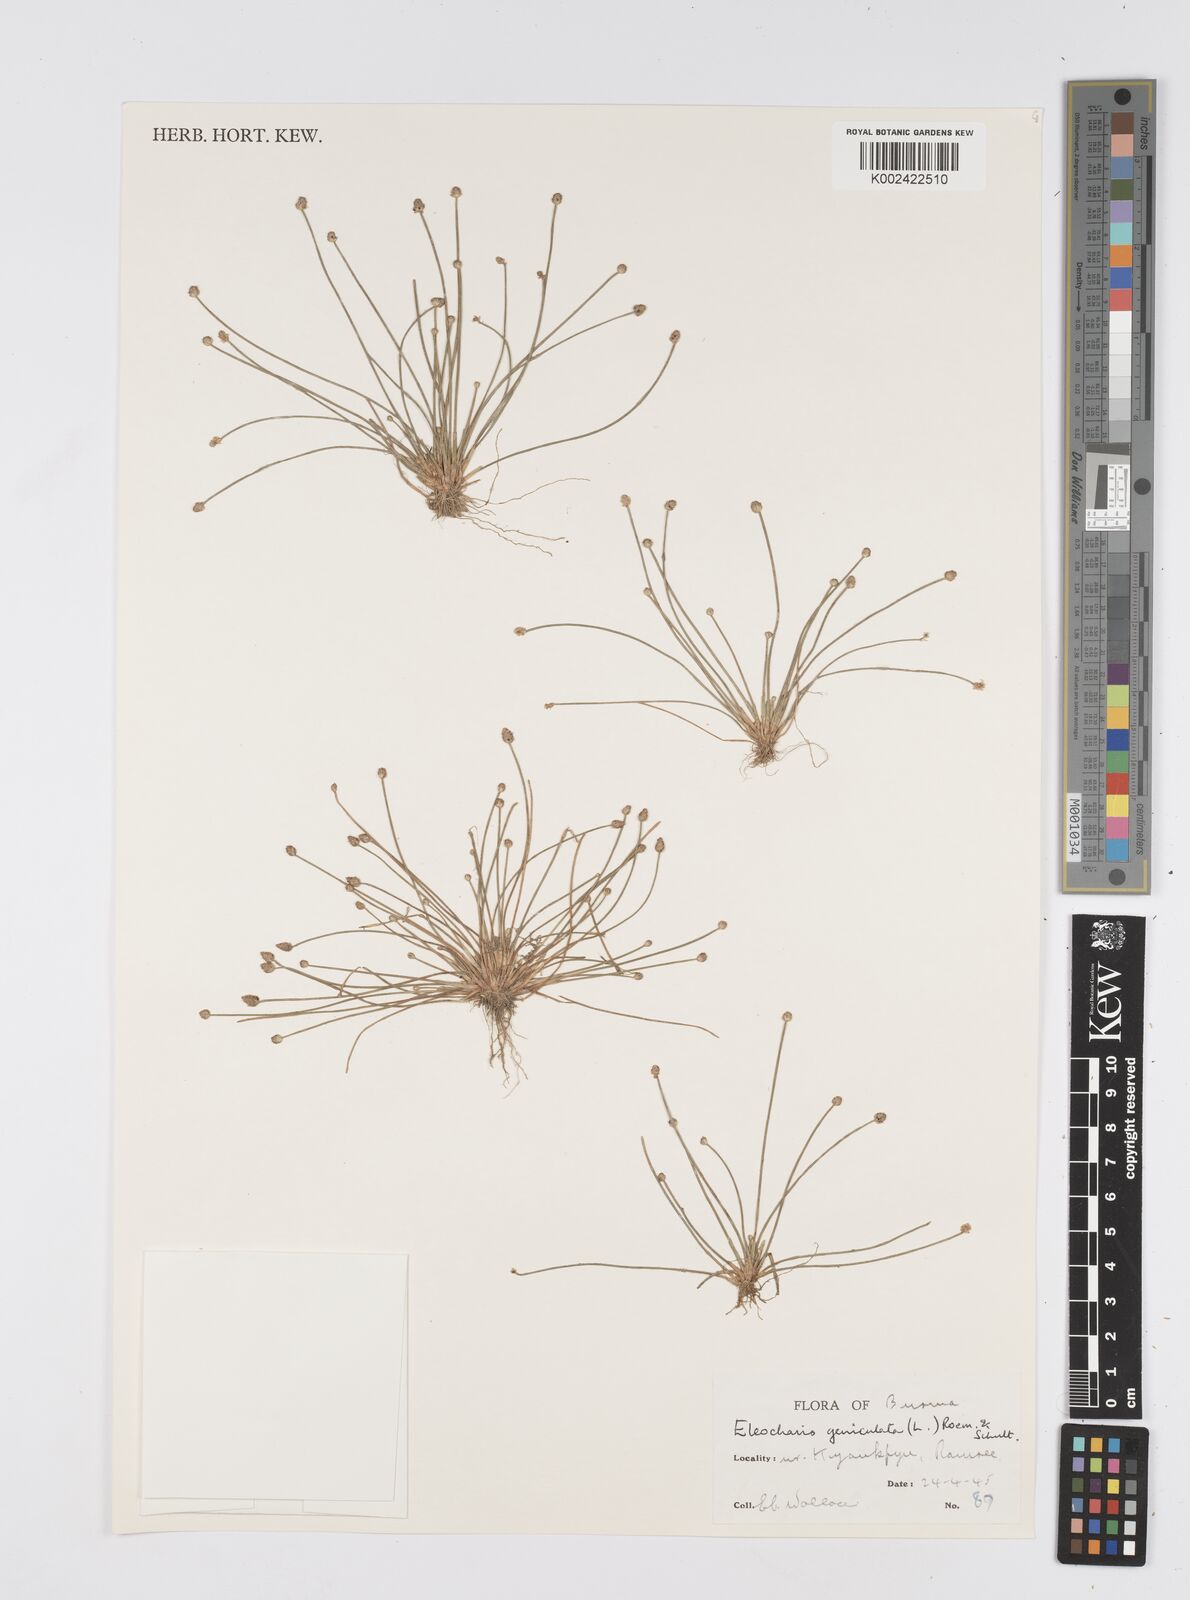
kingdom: Plantae
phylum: Tracheophyta
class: Liliopsida
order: Poales
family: Cyperaceae
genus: Eleocharis
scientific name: Eleocharis geniculata
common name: Canada spikesedge
